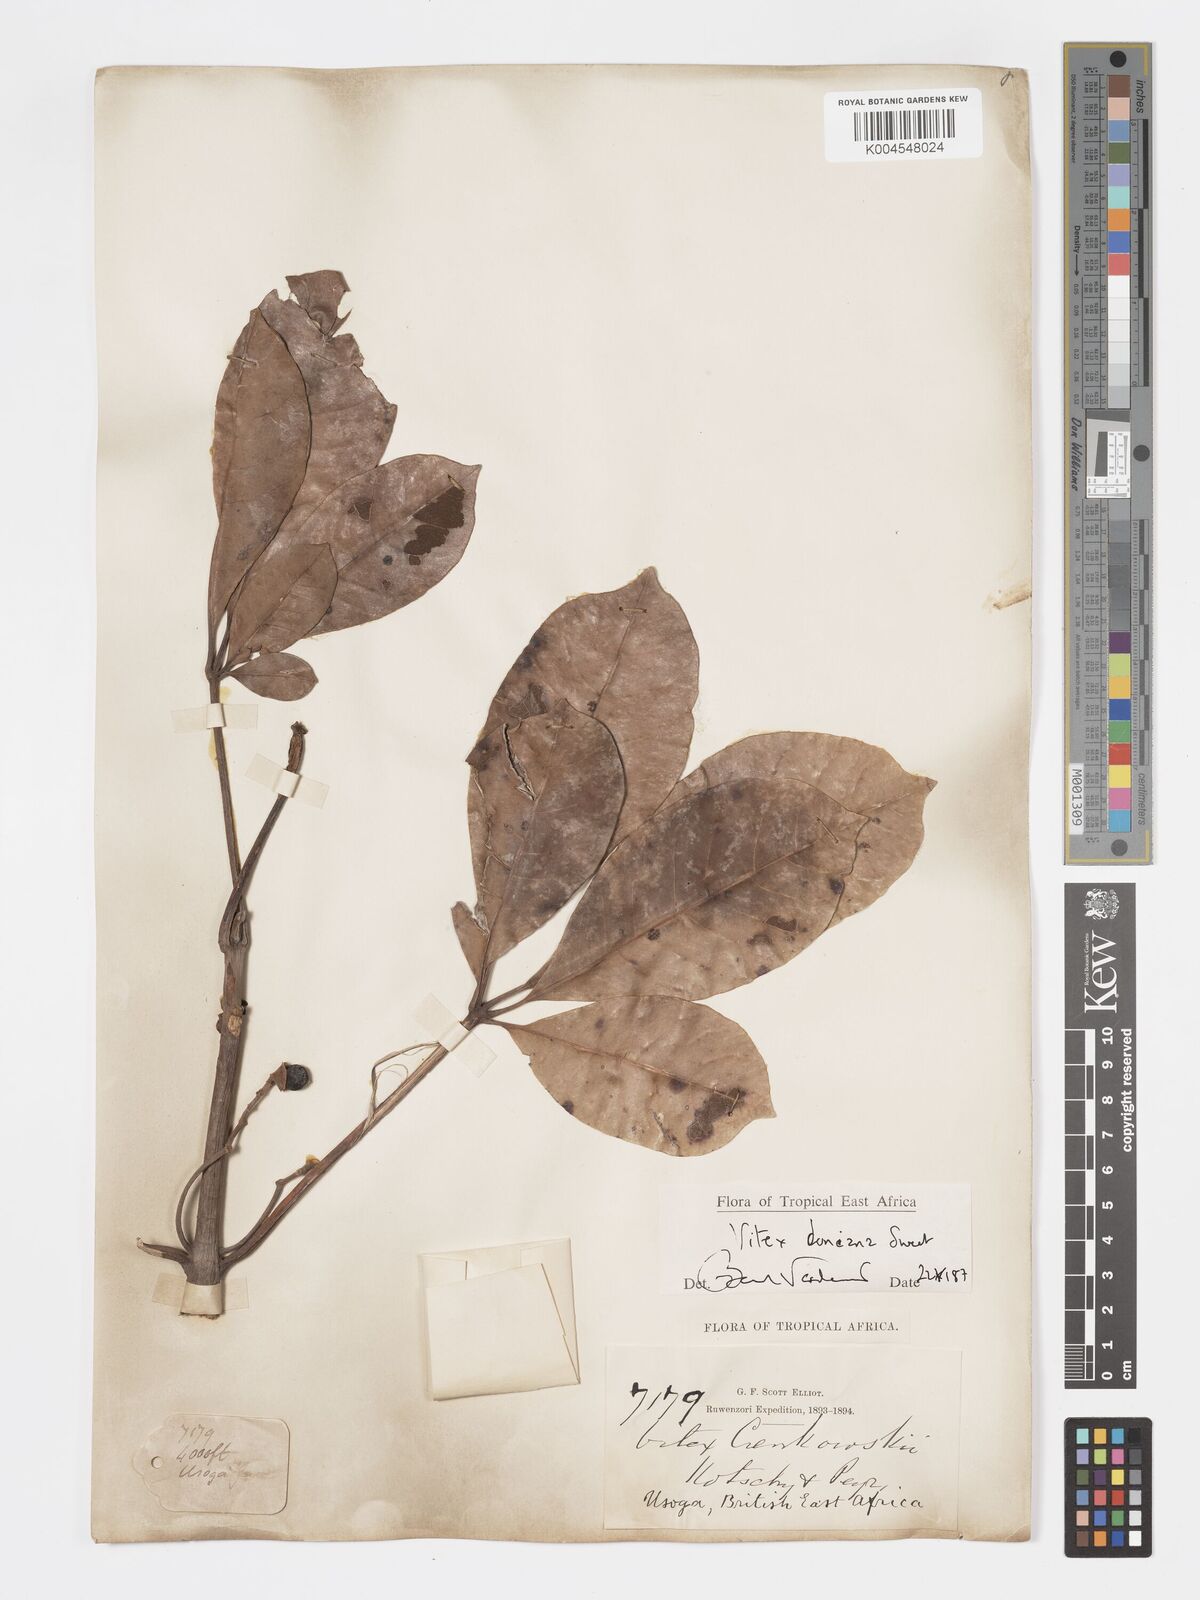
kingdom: Plantae
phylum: Tracheophyta
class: Magnoliopsida
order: Lamiales
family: Lamiaceae
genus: Vitex
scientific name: Vitex doniana
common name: Black plum
